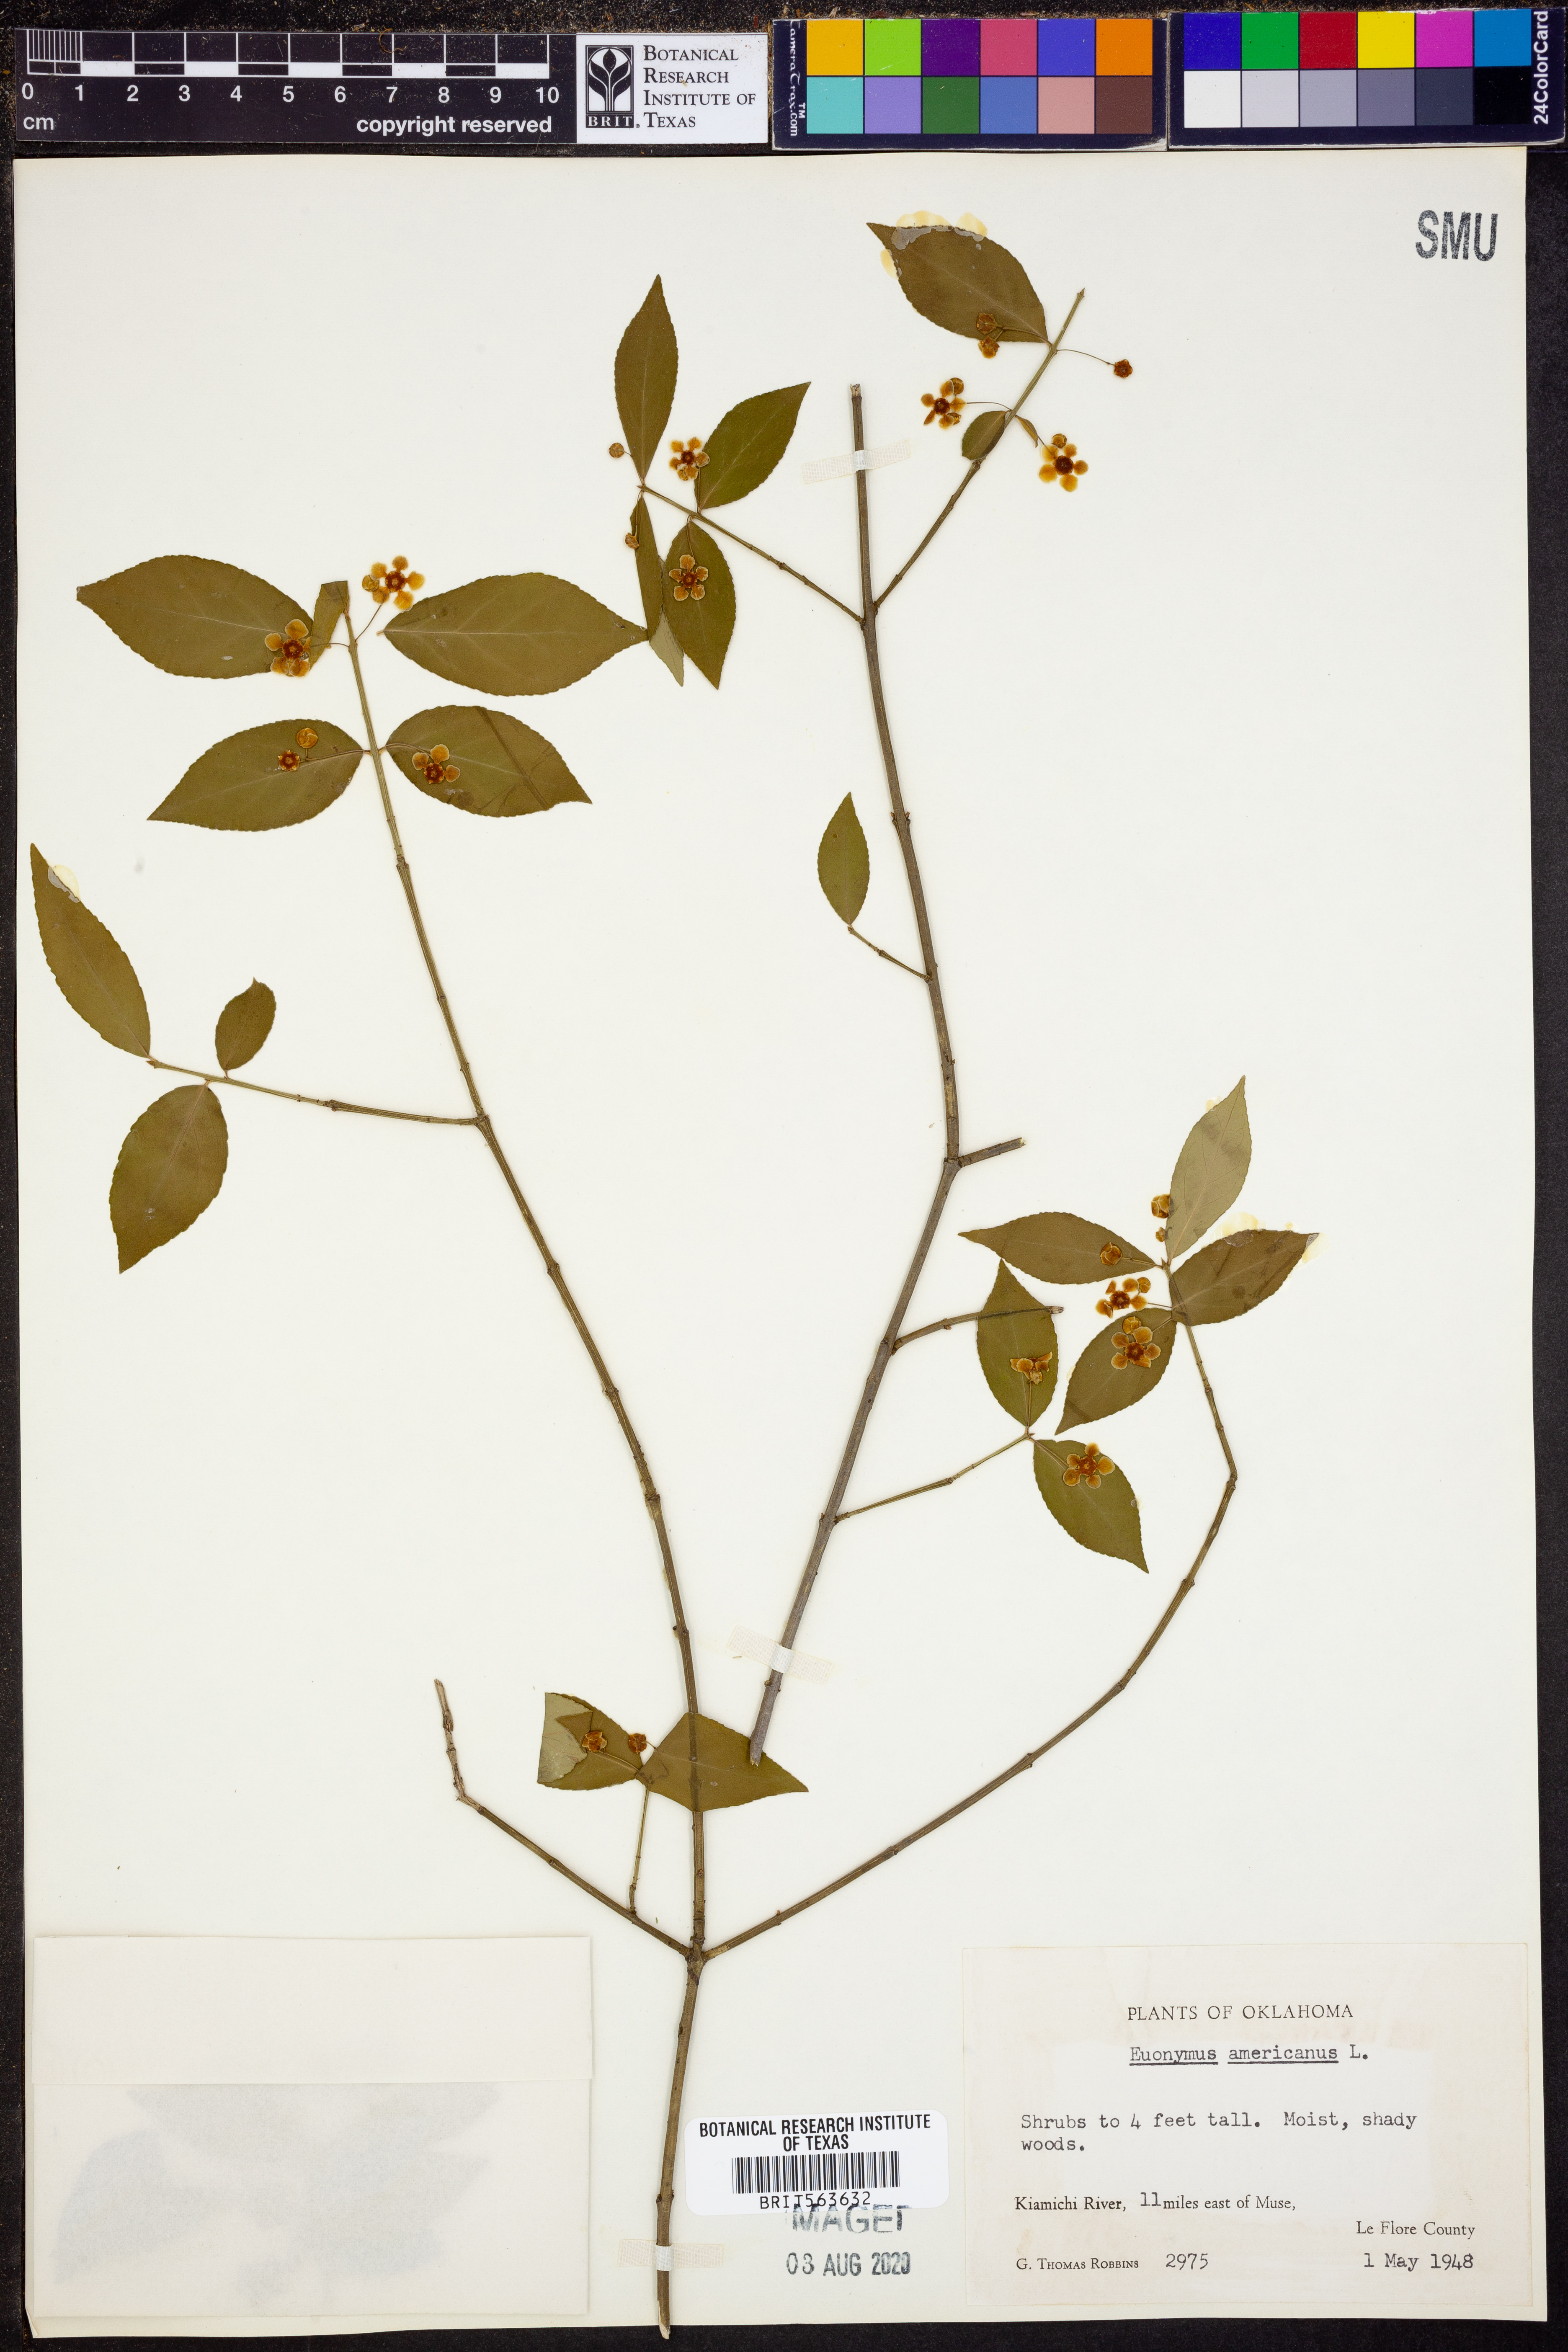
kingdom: Plantae
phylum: Tracheophyta
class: Magnoliopsida
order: Celastrales
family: Celastraceae
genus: Euonymus
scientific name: Euonymus americanus
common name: Bursting-heart
